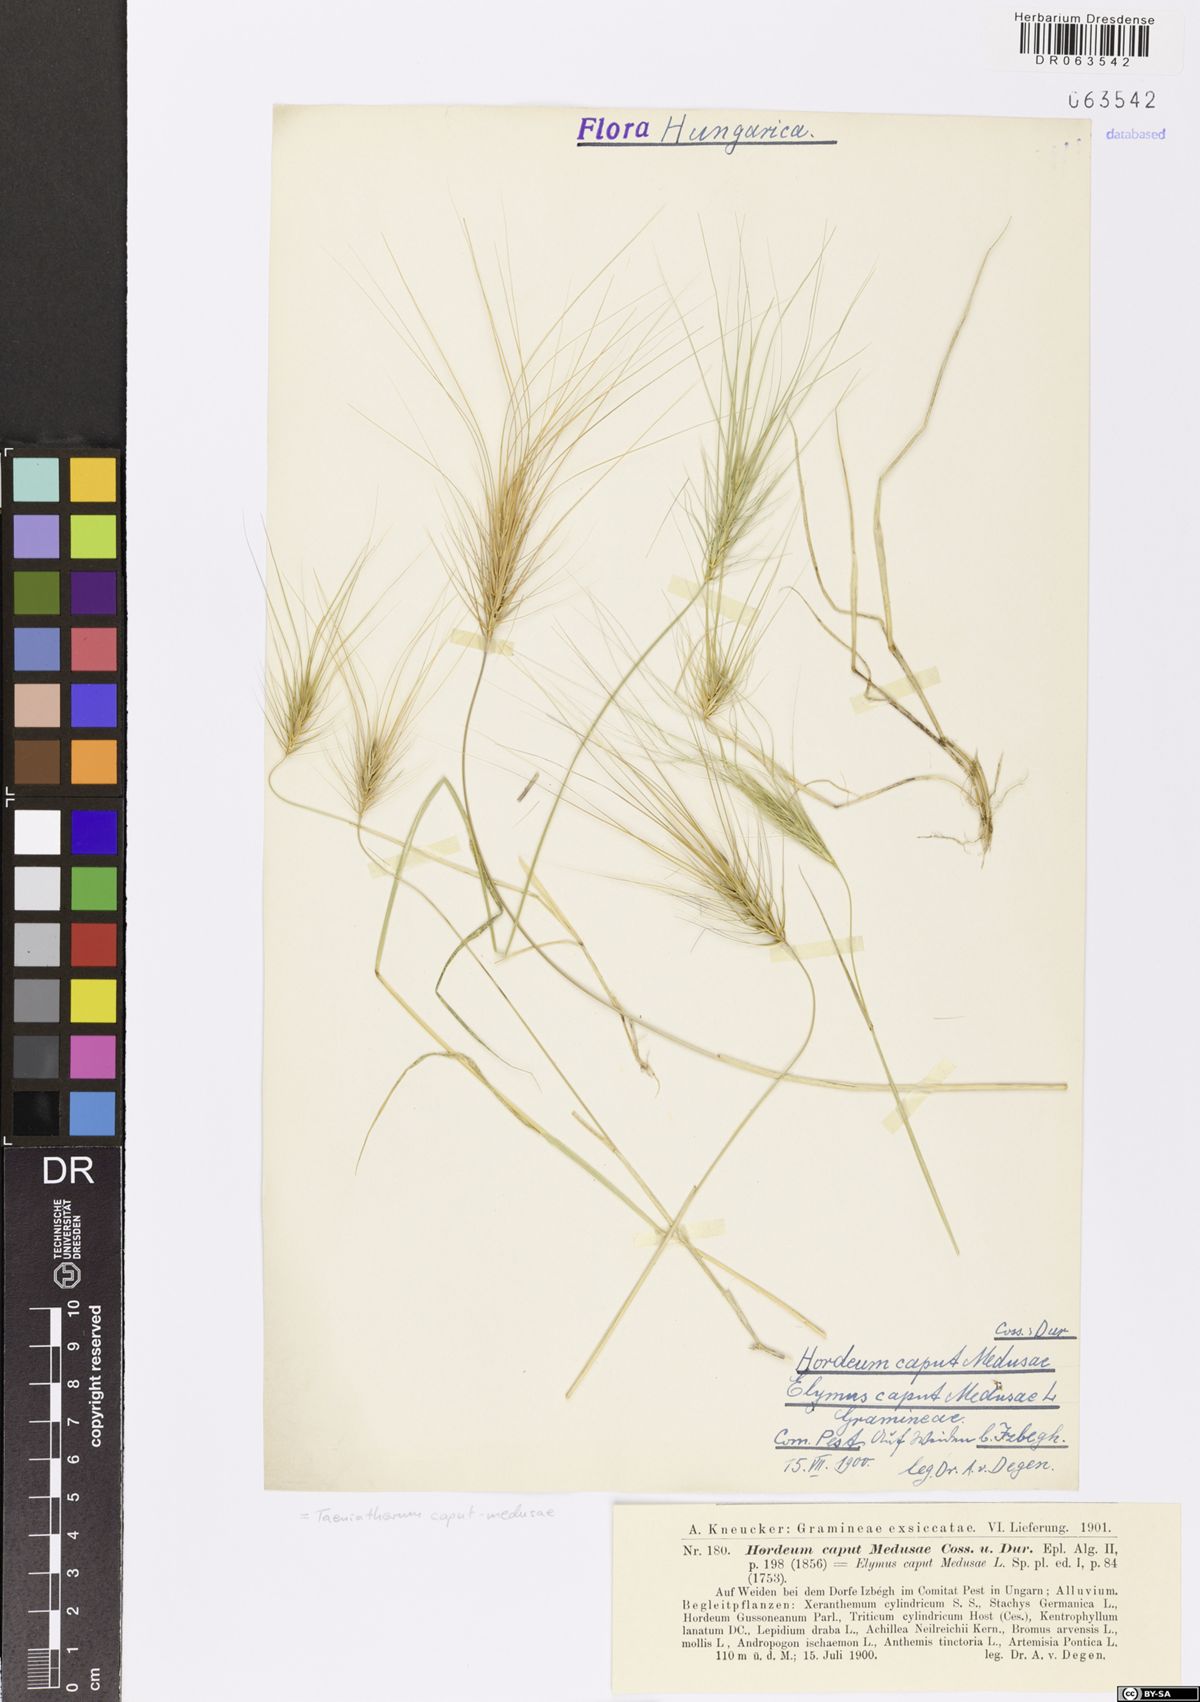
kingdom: Plantae
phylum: Tracheophyta
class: Liliopsida
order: Poales
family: Poaceae
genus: Taeniatherum
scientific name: Taeniatherum caput-medusae
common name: Medusahead
